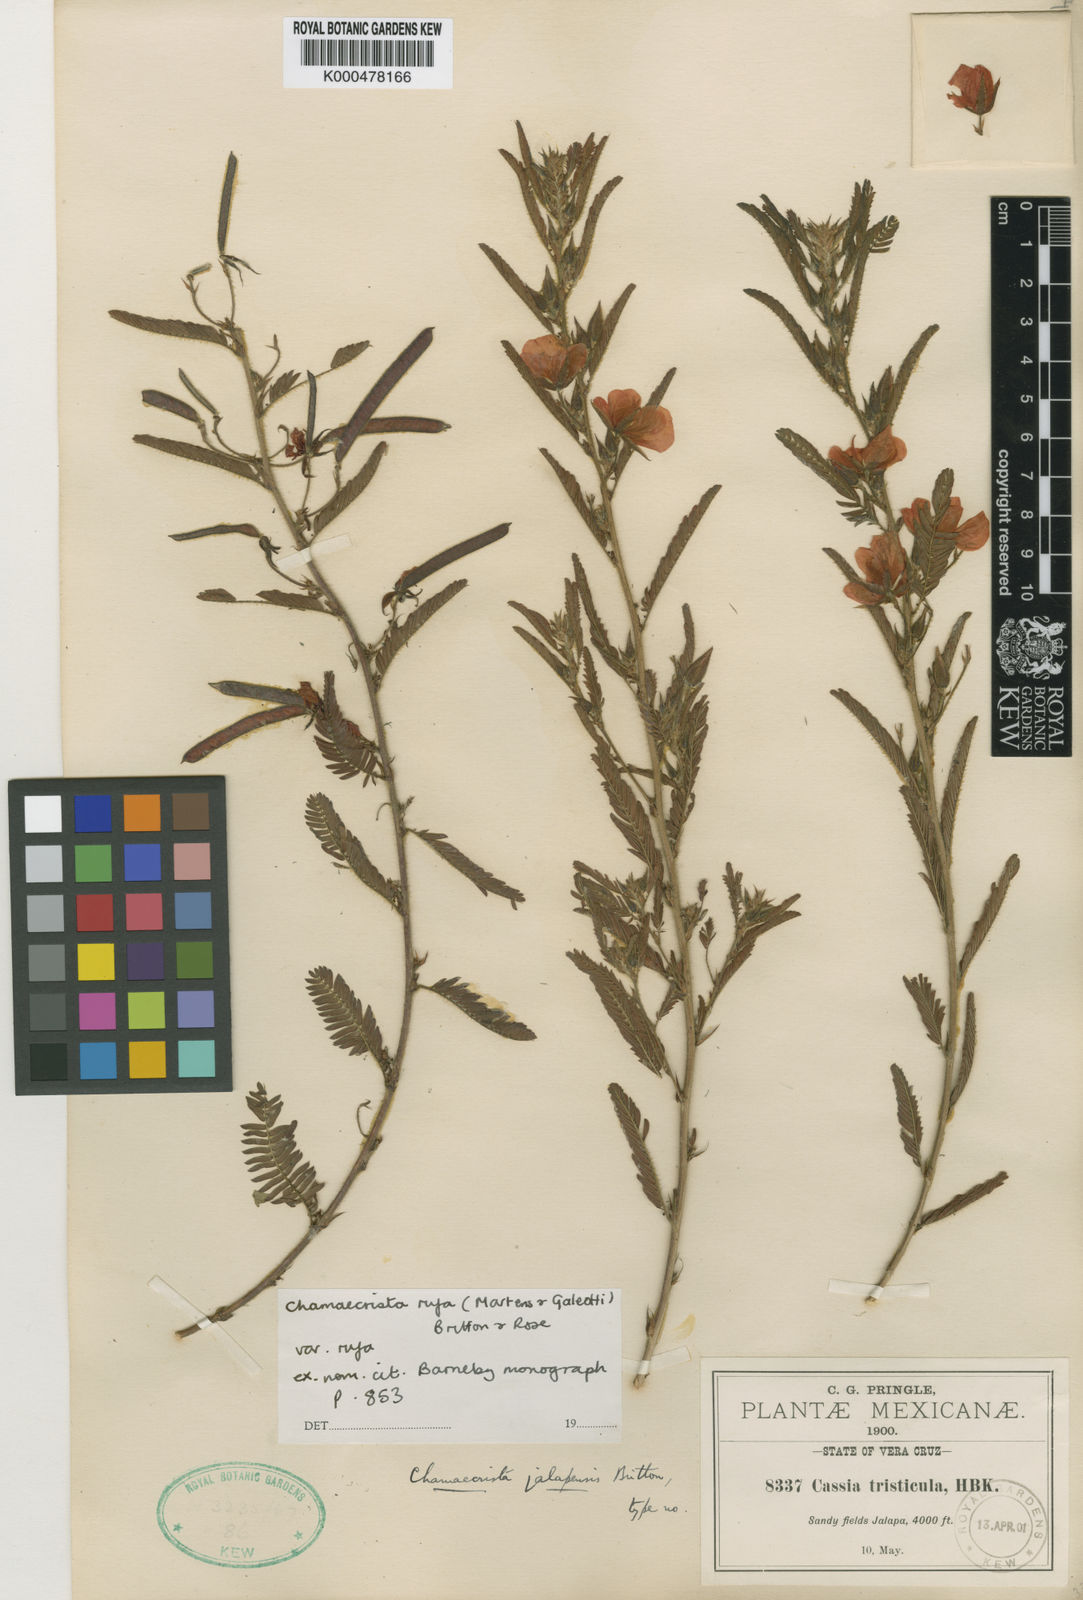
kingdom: Plantae
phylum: Tracheophyta
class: Magnoliopsida
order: Fabales
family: Fabaceae
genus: Chamaecrista
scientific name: Chamaecrista rufa
